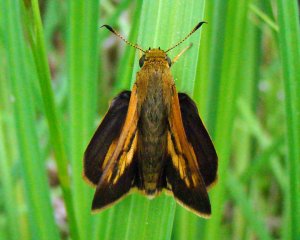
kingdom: Animalia
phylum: Arthropoda
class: Insecta
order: Lepidoptera
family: Hesperiidae
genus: Euphyes
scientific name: Euphyes dion
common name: Dion Skipper
